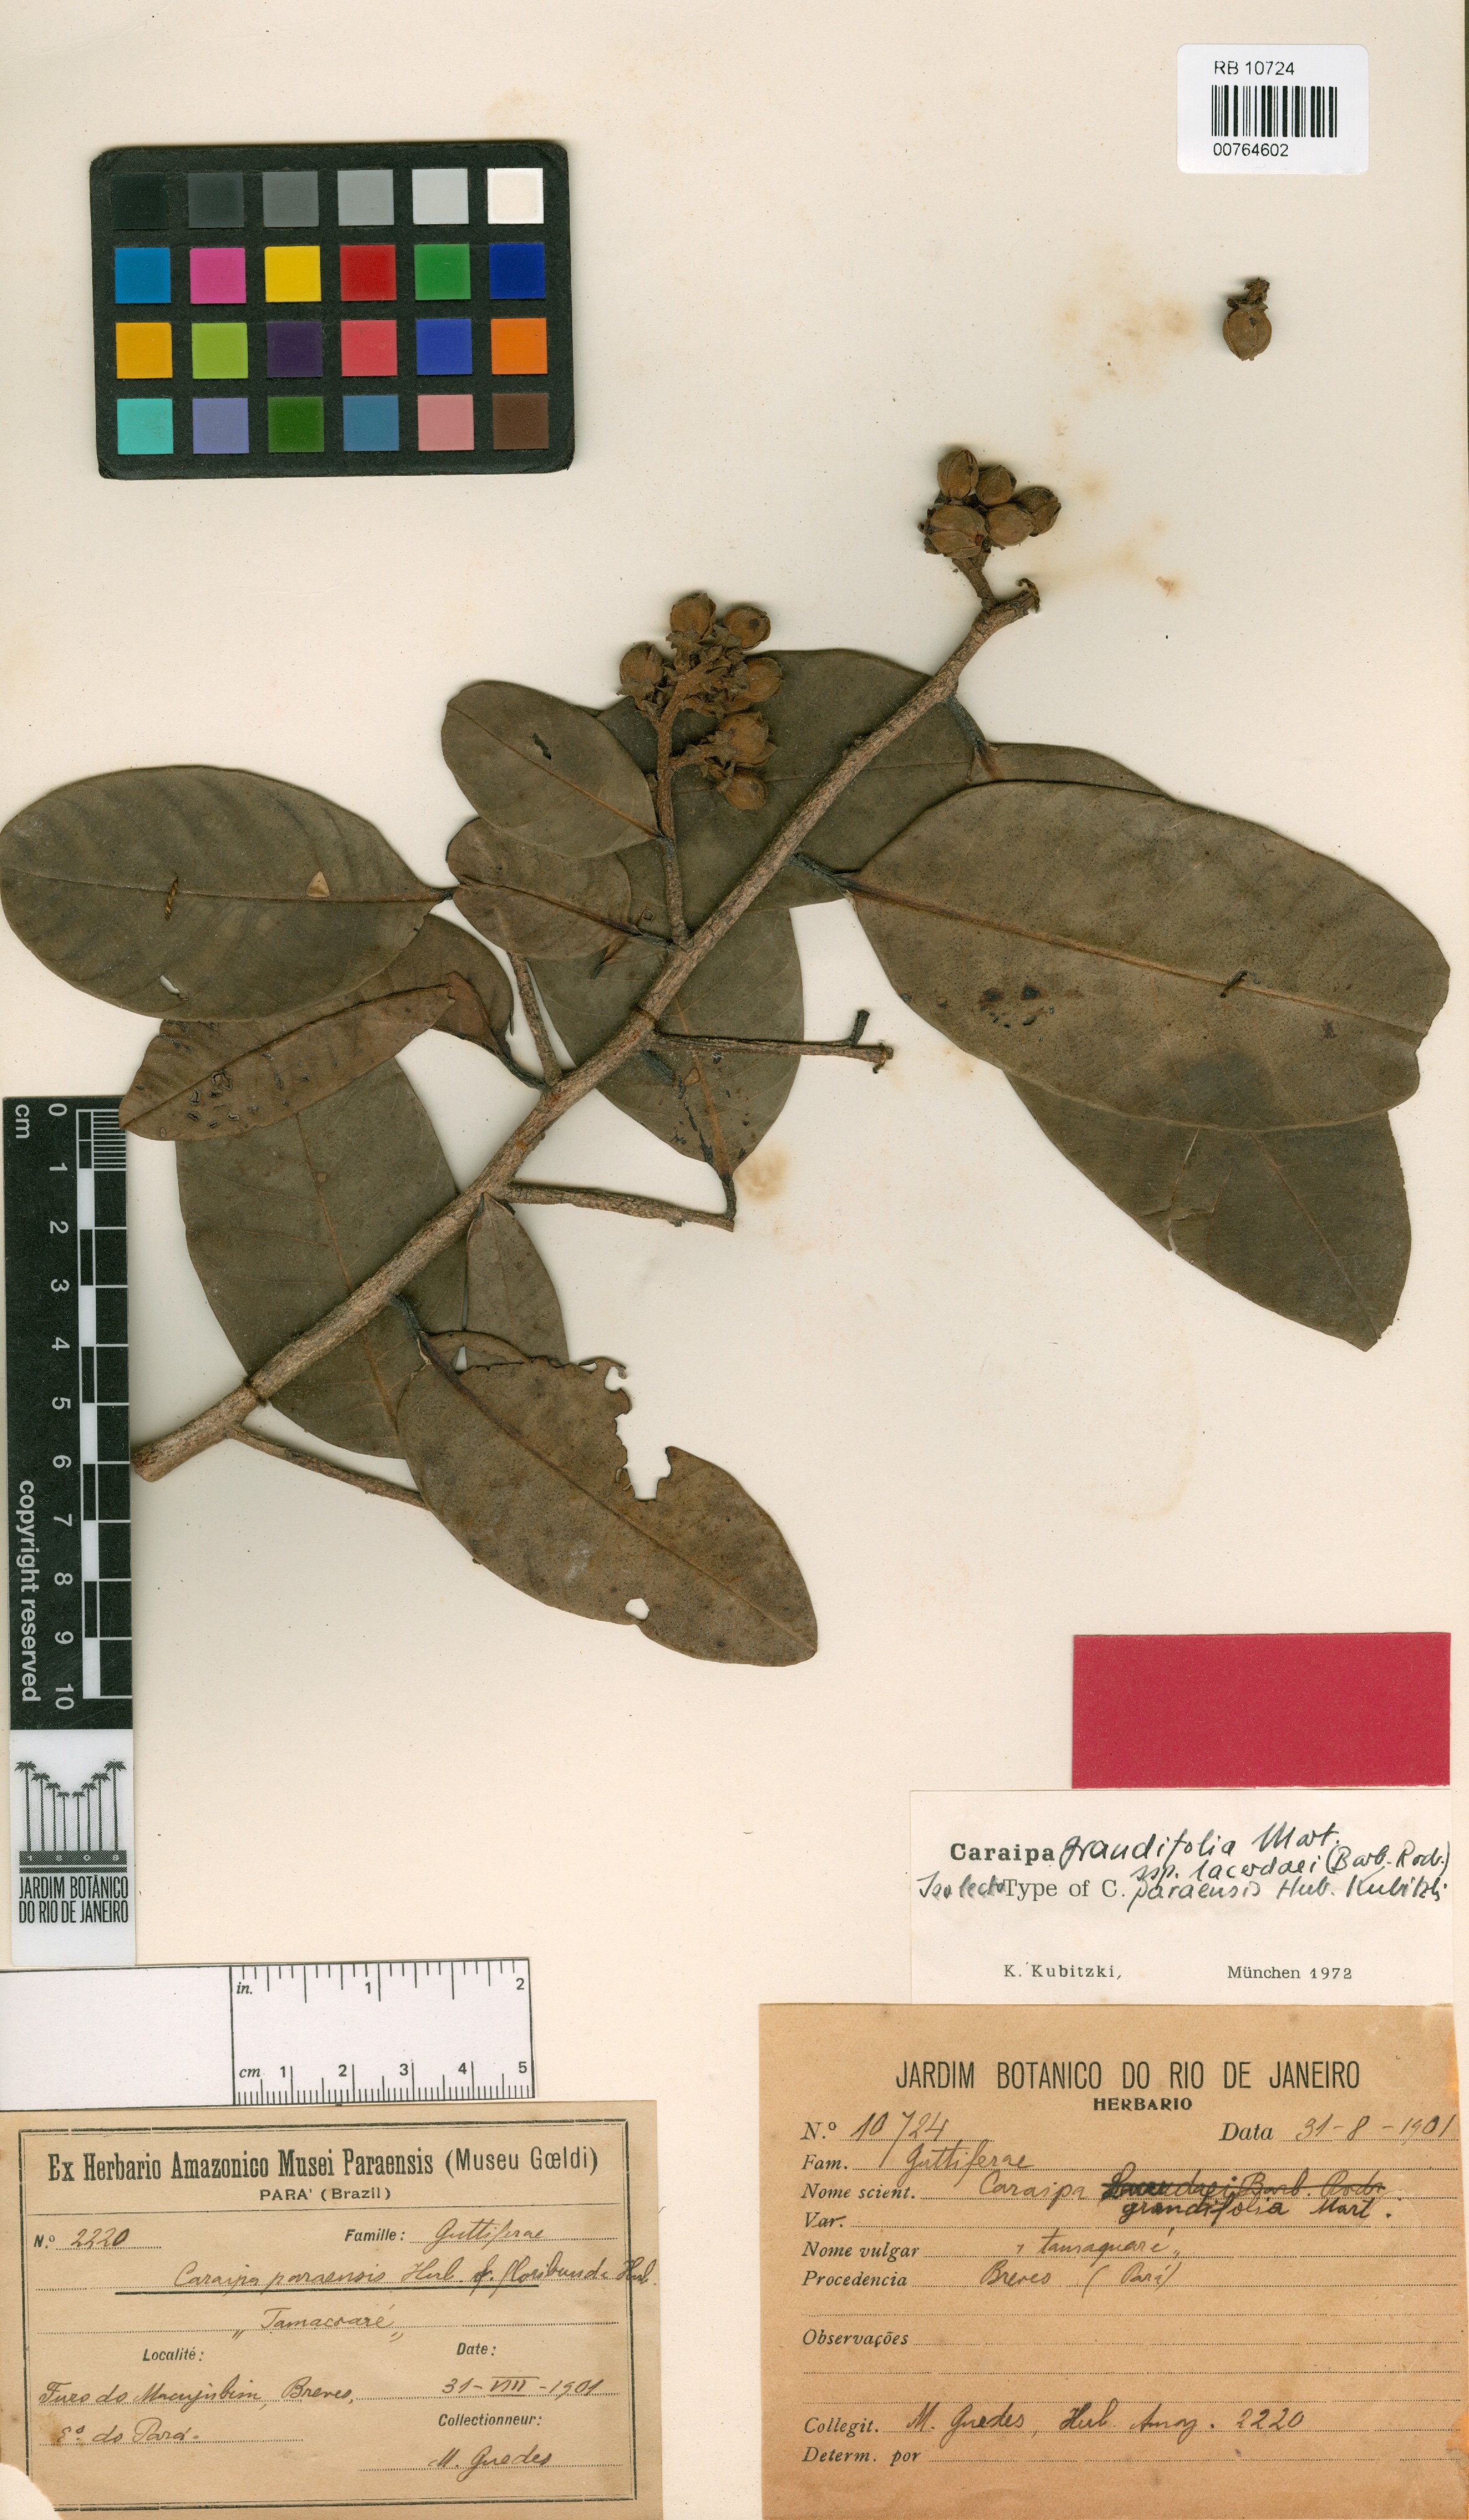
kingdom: Plantae
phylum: Tracheophyta
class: Magnoliopsida
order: Malpighiales
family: Calophyllaceae
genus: Caraipa
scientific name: Caraipa grandifolia
